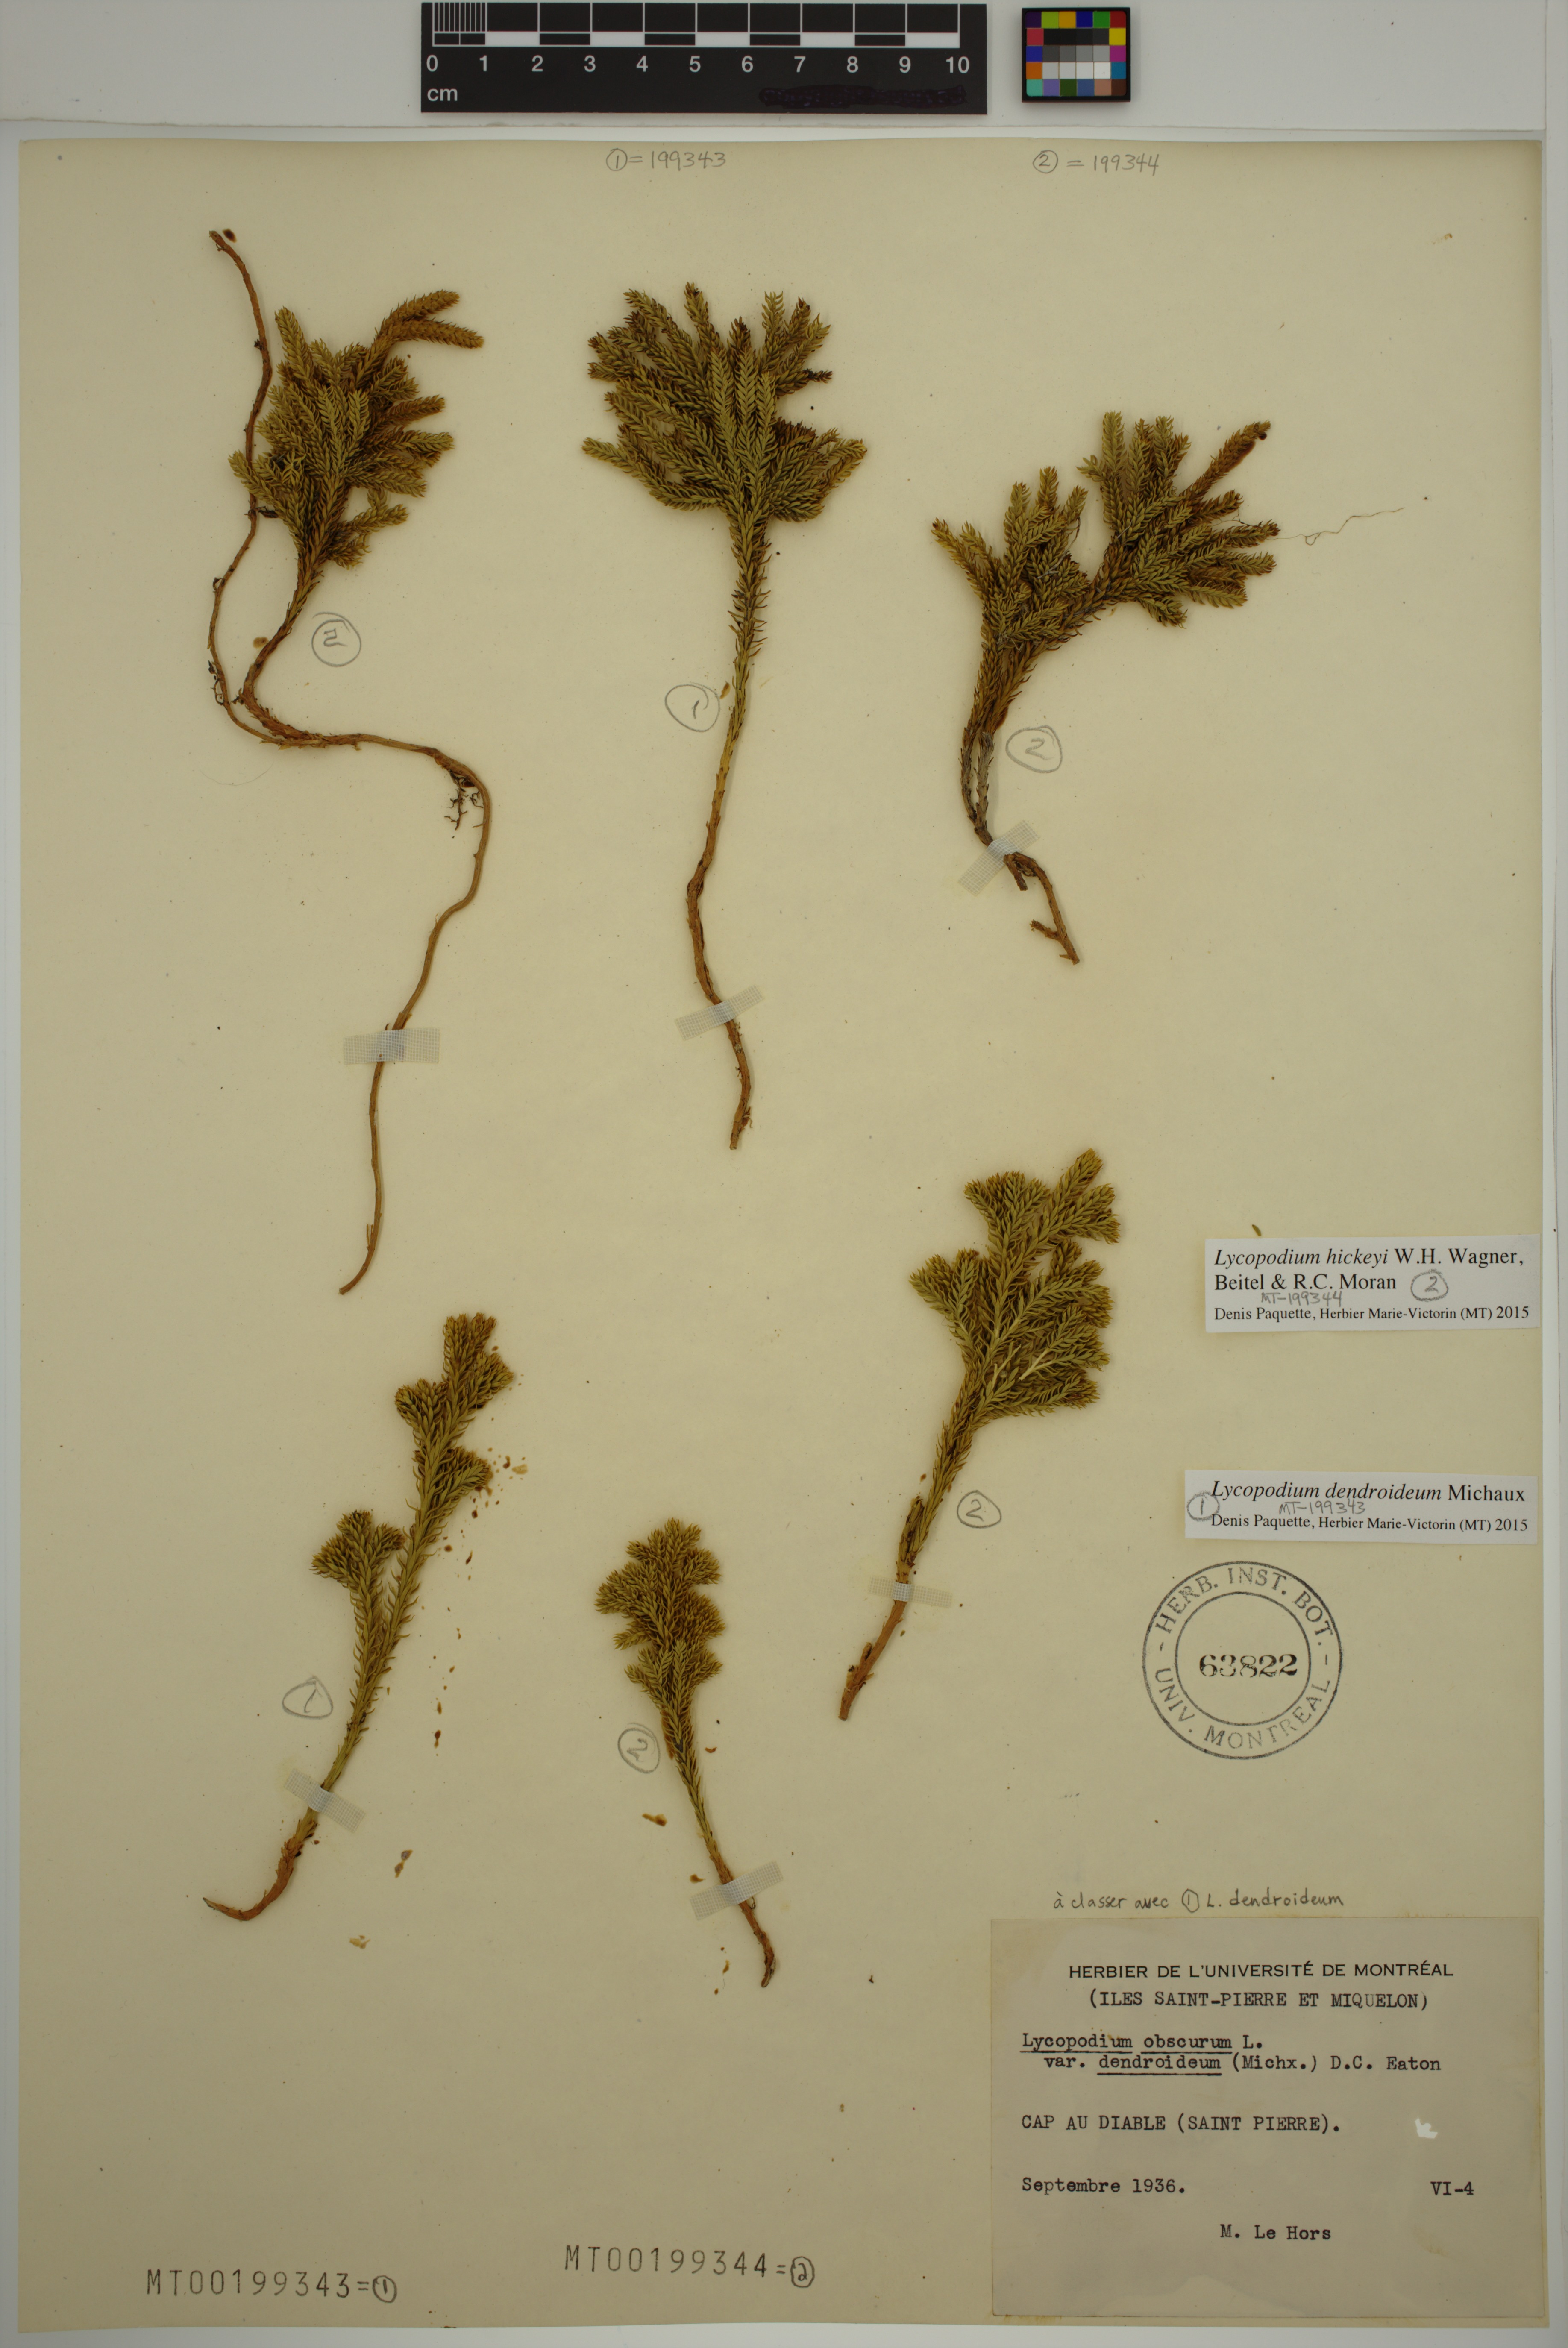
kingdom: Plantae
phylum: Tracheophyta
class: Lycopodiopsida
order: Lycopodiales
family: Lycopodiaceae
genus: Dendrolycopodium
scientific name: Dendrolycopodium dendroideum
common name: Northern tree-clubmoss
